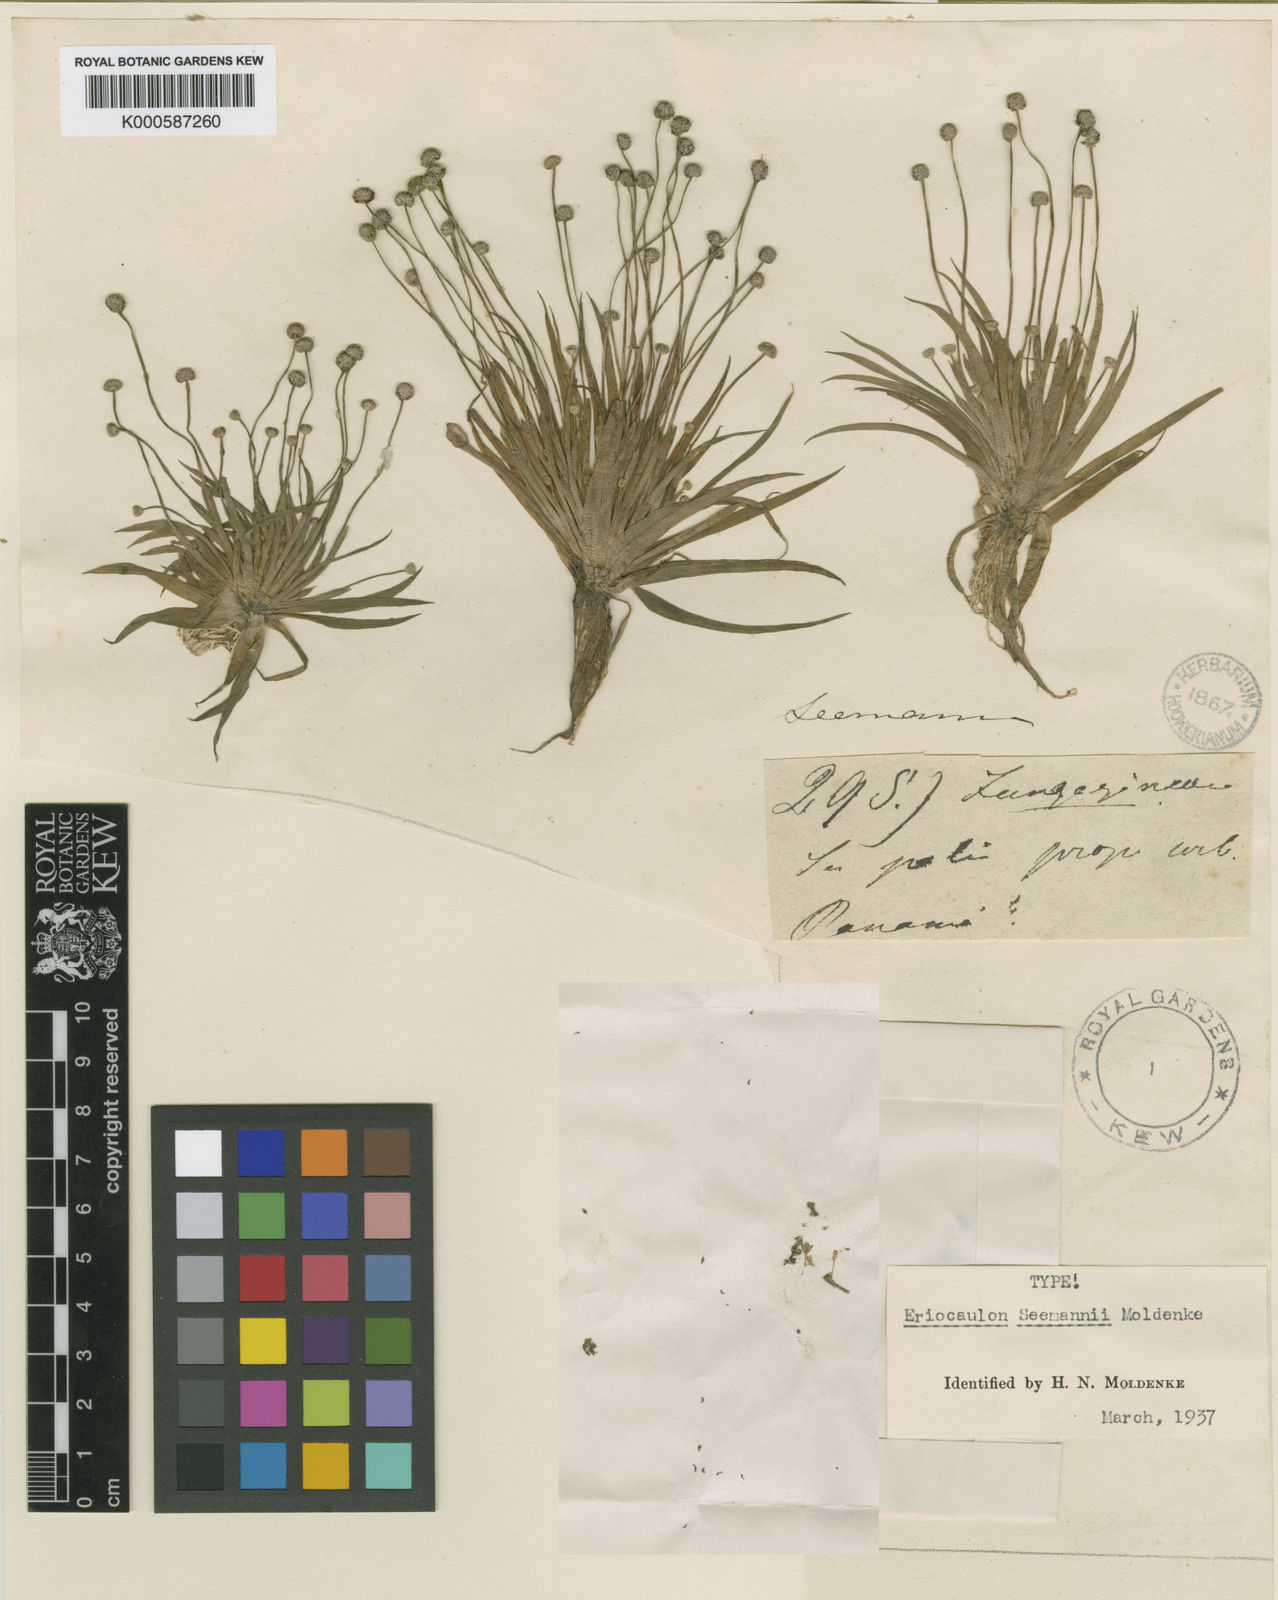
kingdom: Plantae
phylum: Tracheophyta
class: Liliopsida
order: Poales
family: Eriocaulaceae
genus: Eriocaulon
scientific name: Eriocaulon seemannii
